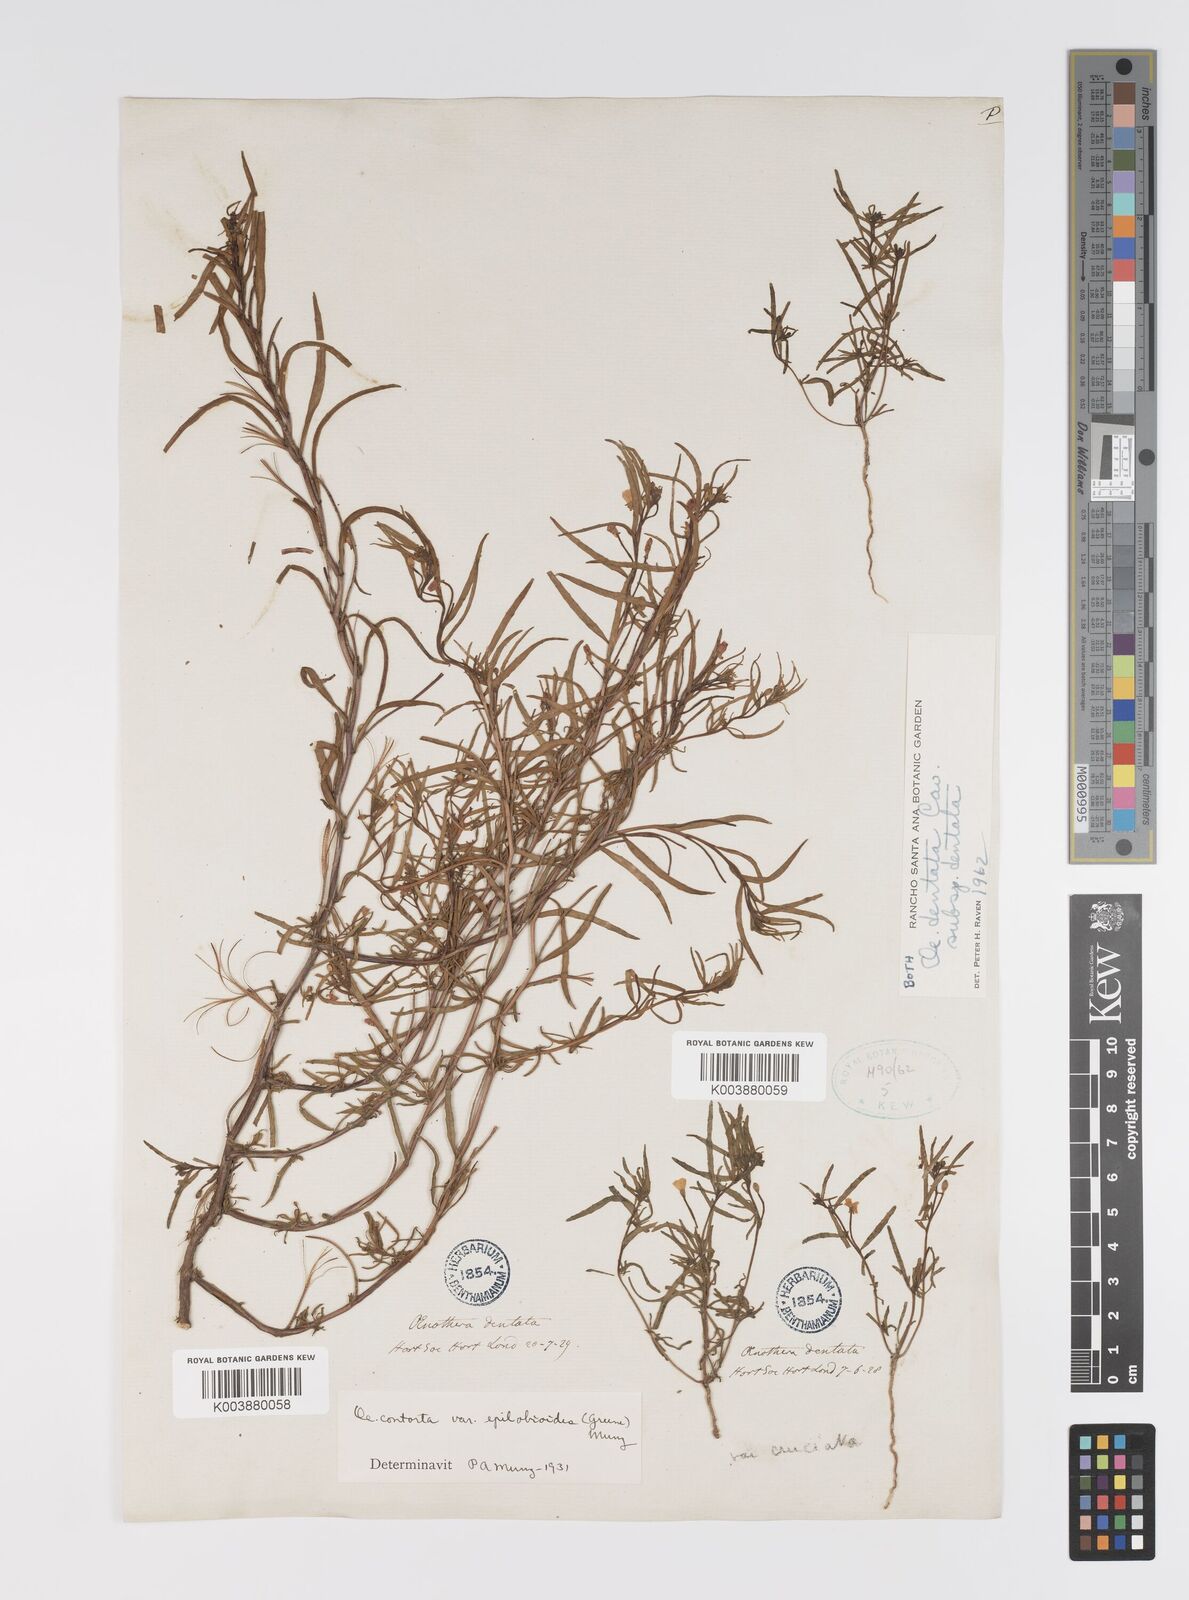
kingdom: Plantae
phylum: Tracheophyta
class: Magnoliopsida
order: Myrtales
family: Onagraceae
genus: Camissonia
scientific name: Camissonia dentata
